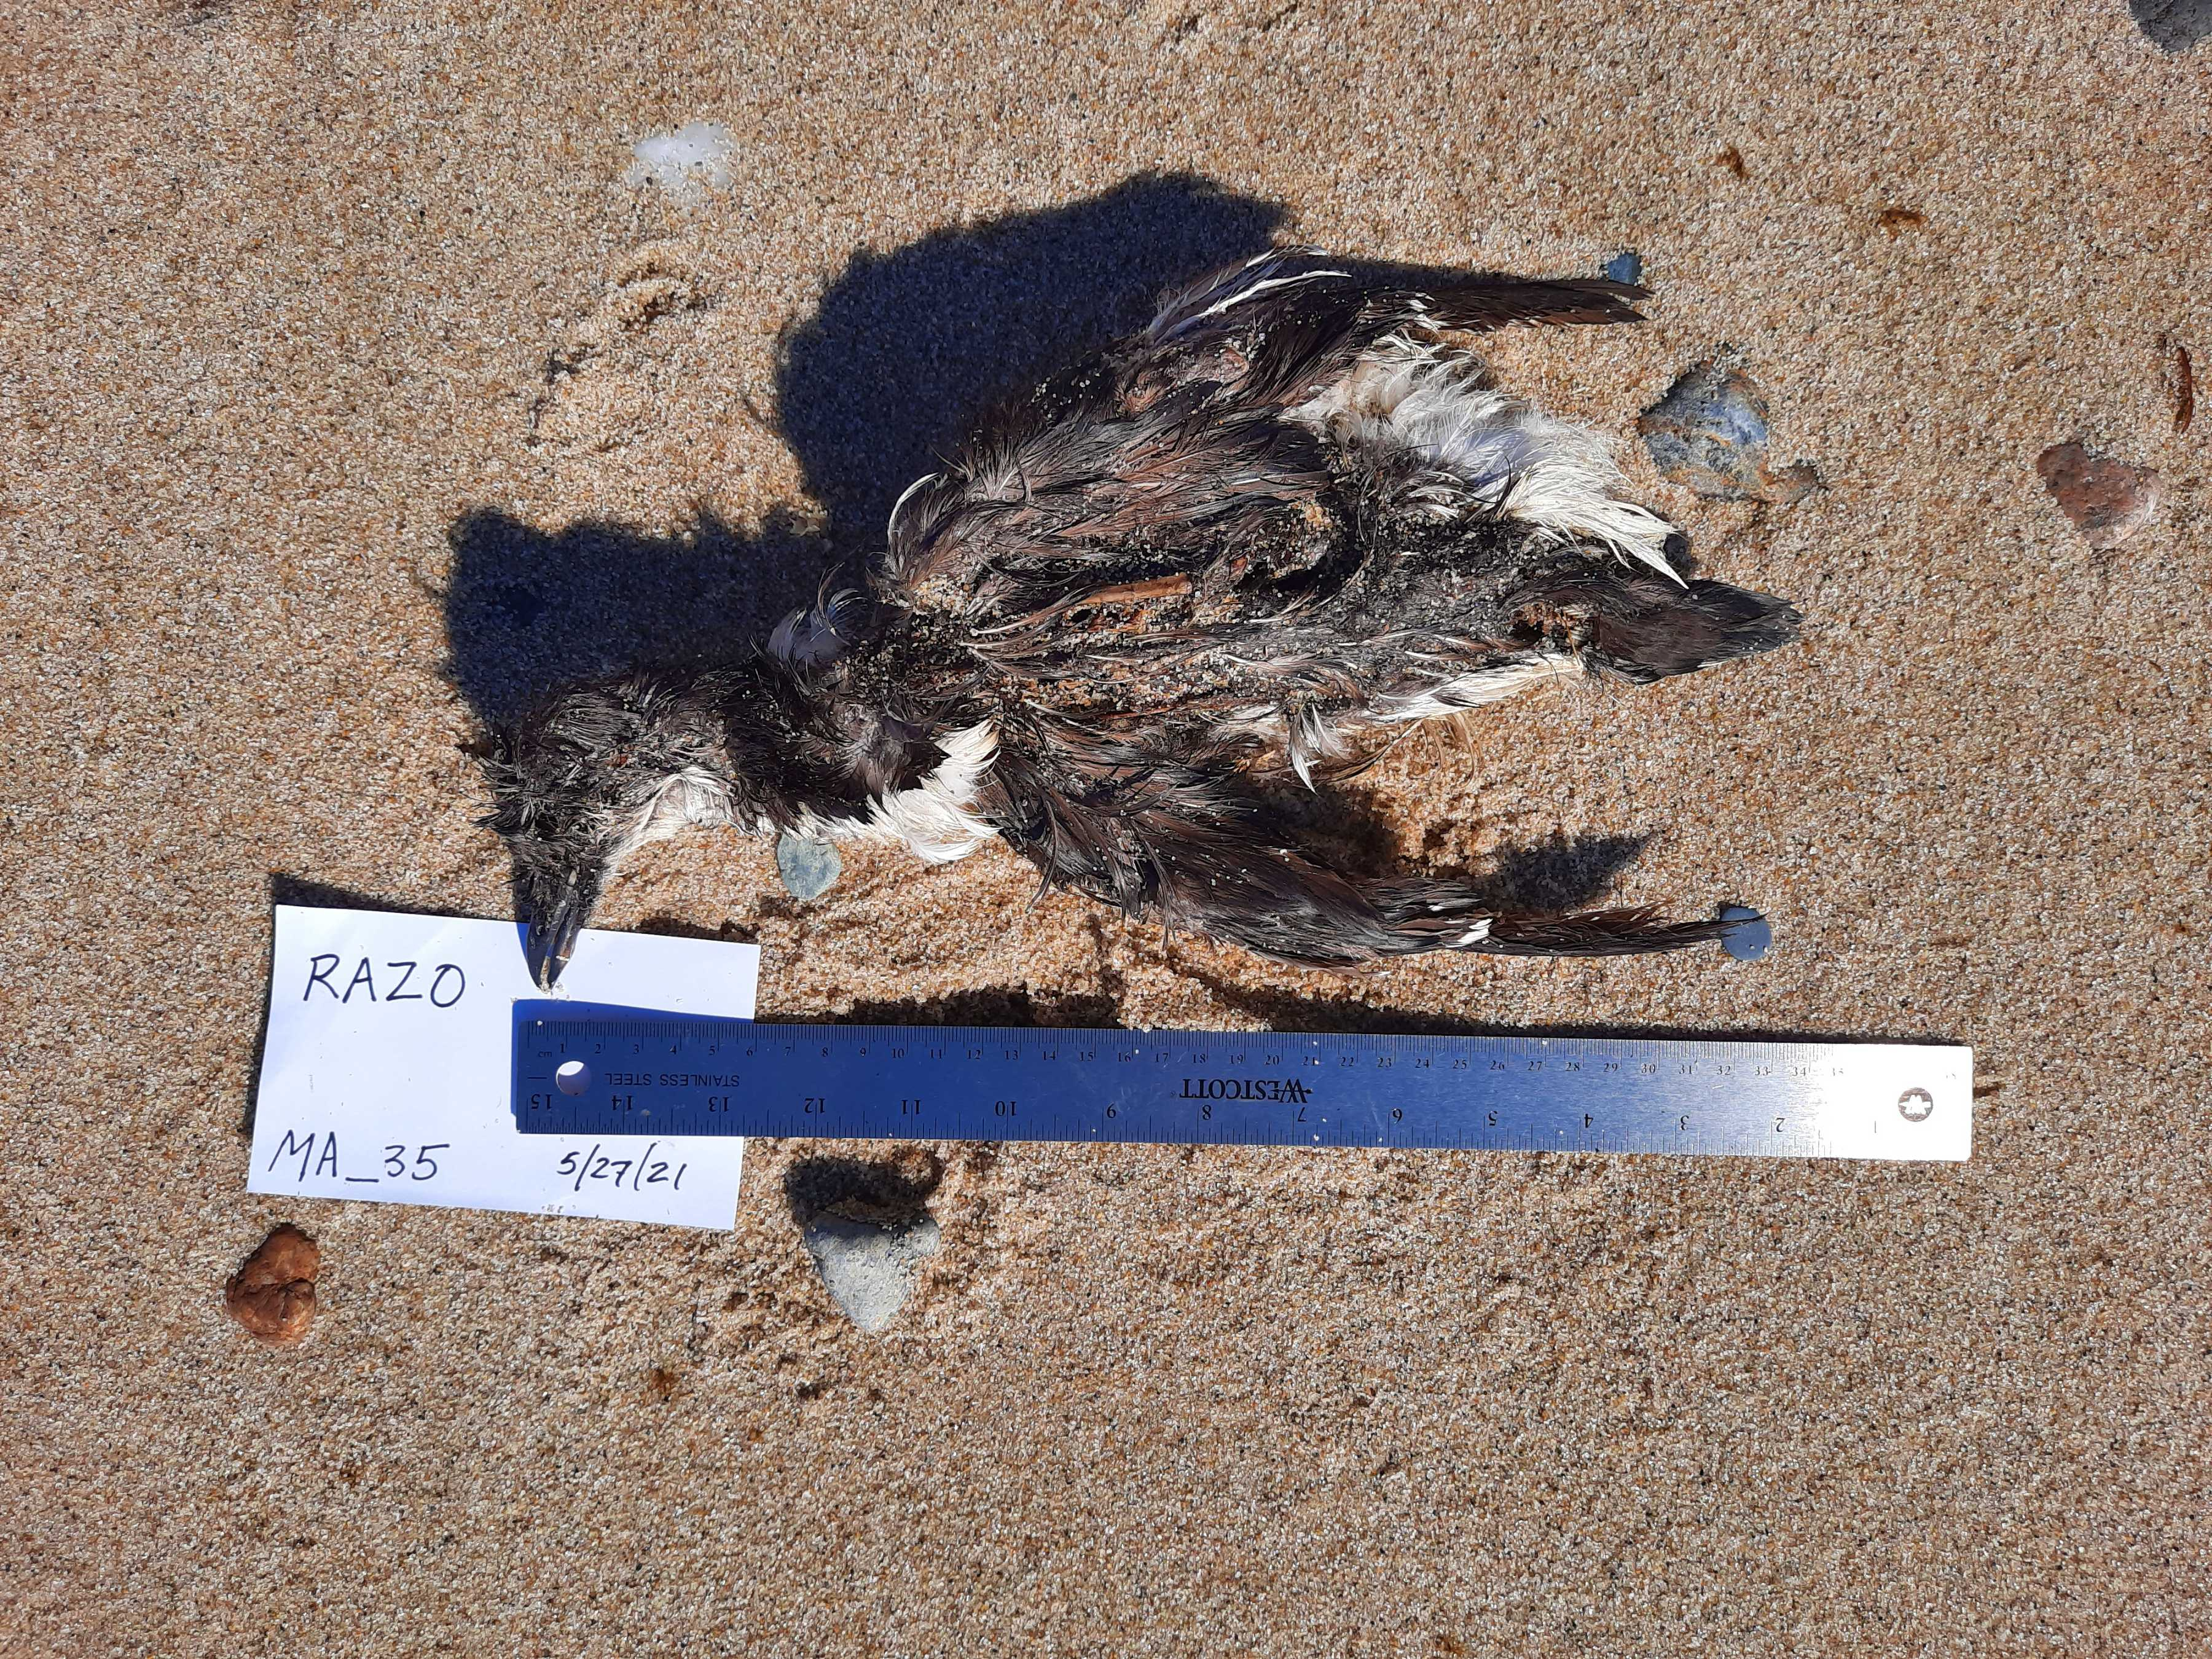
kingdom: Animalia
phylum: Chordata
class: Aves
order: Charadriiformes
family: Alcidae
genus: Alca
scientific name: Alca torda
